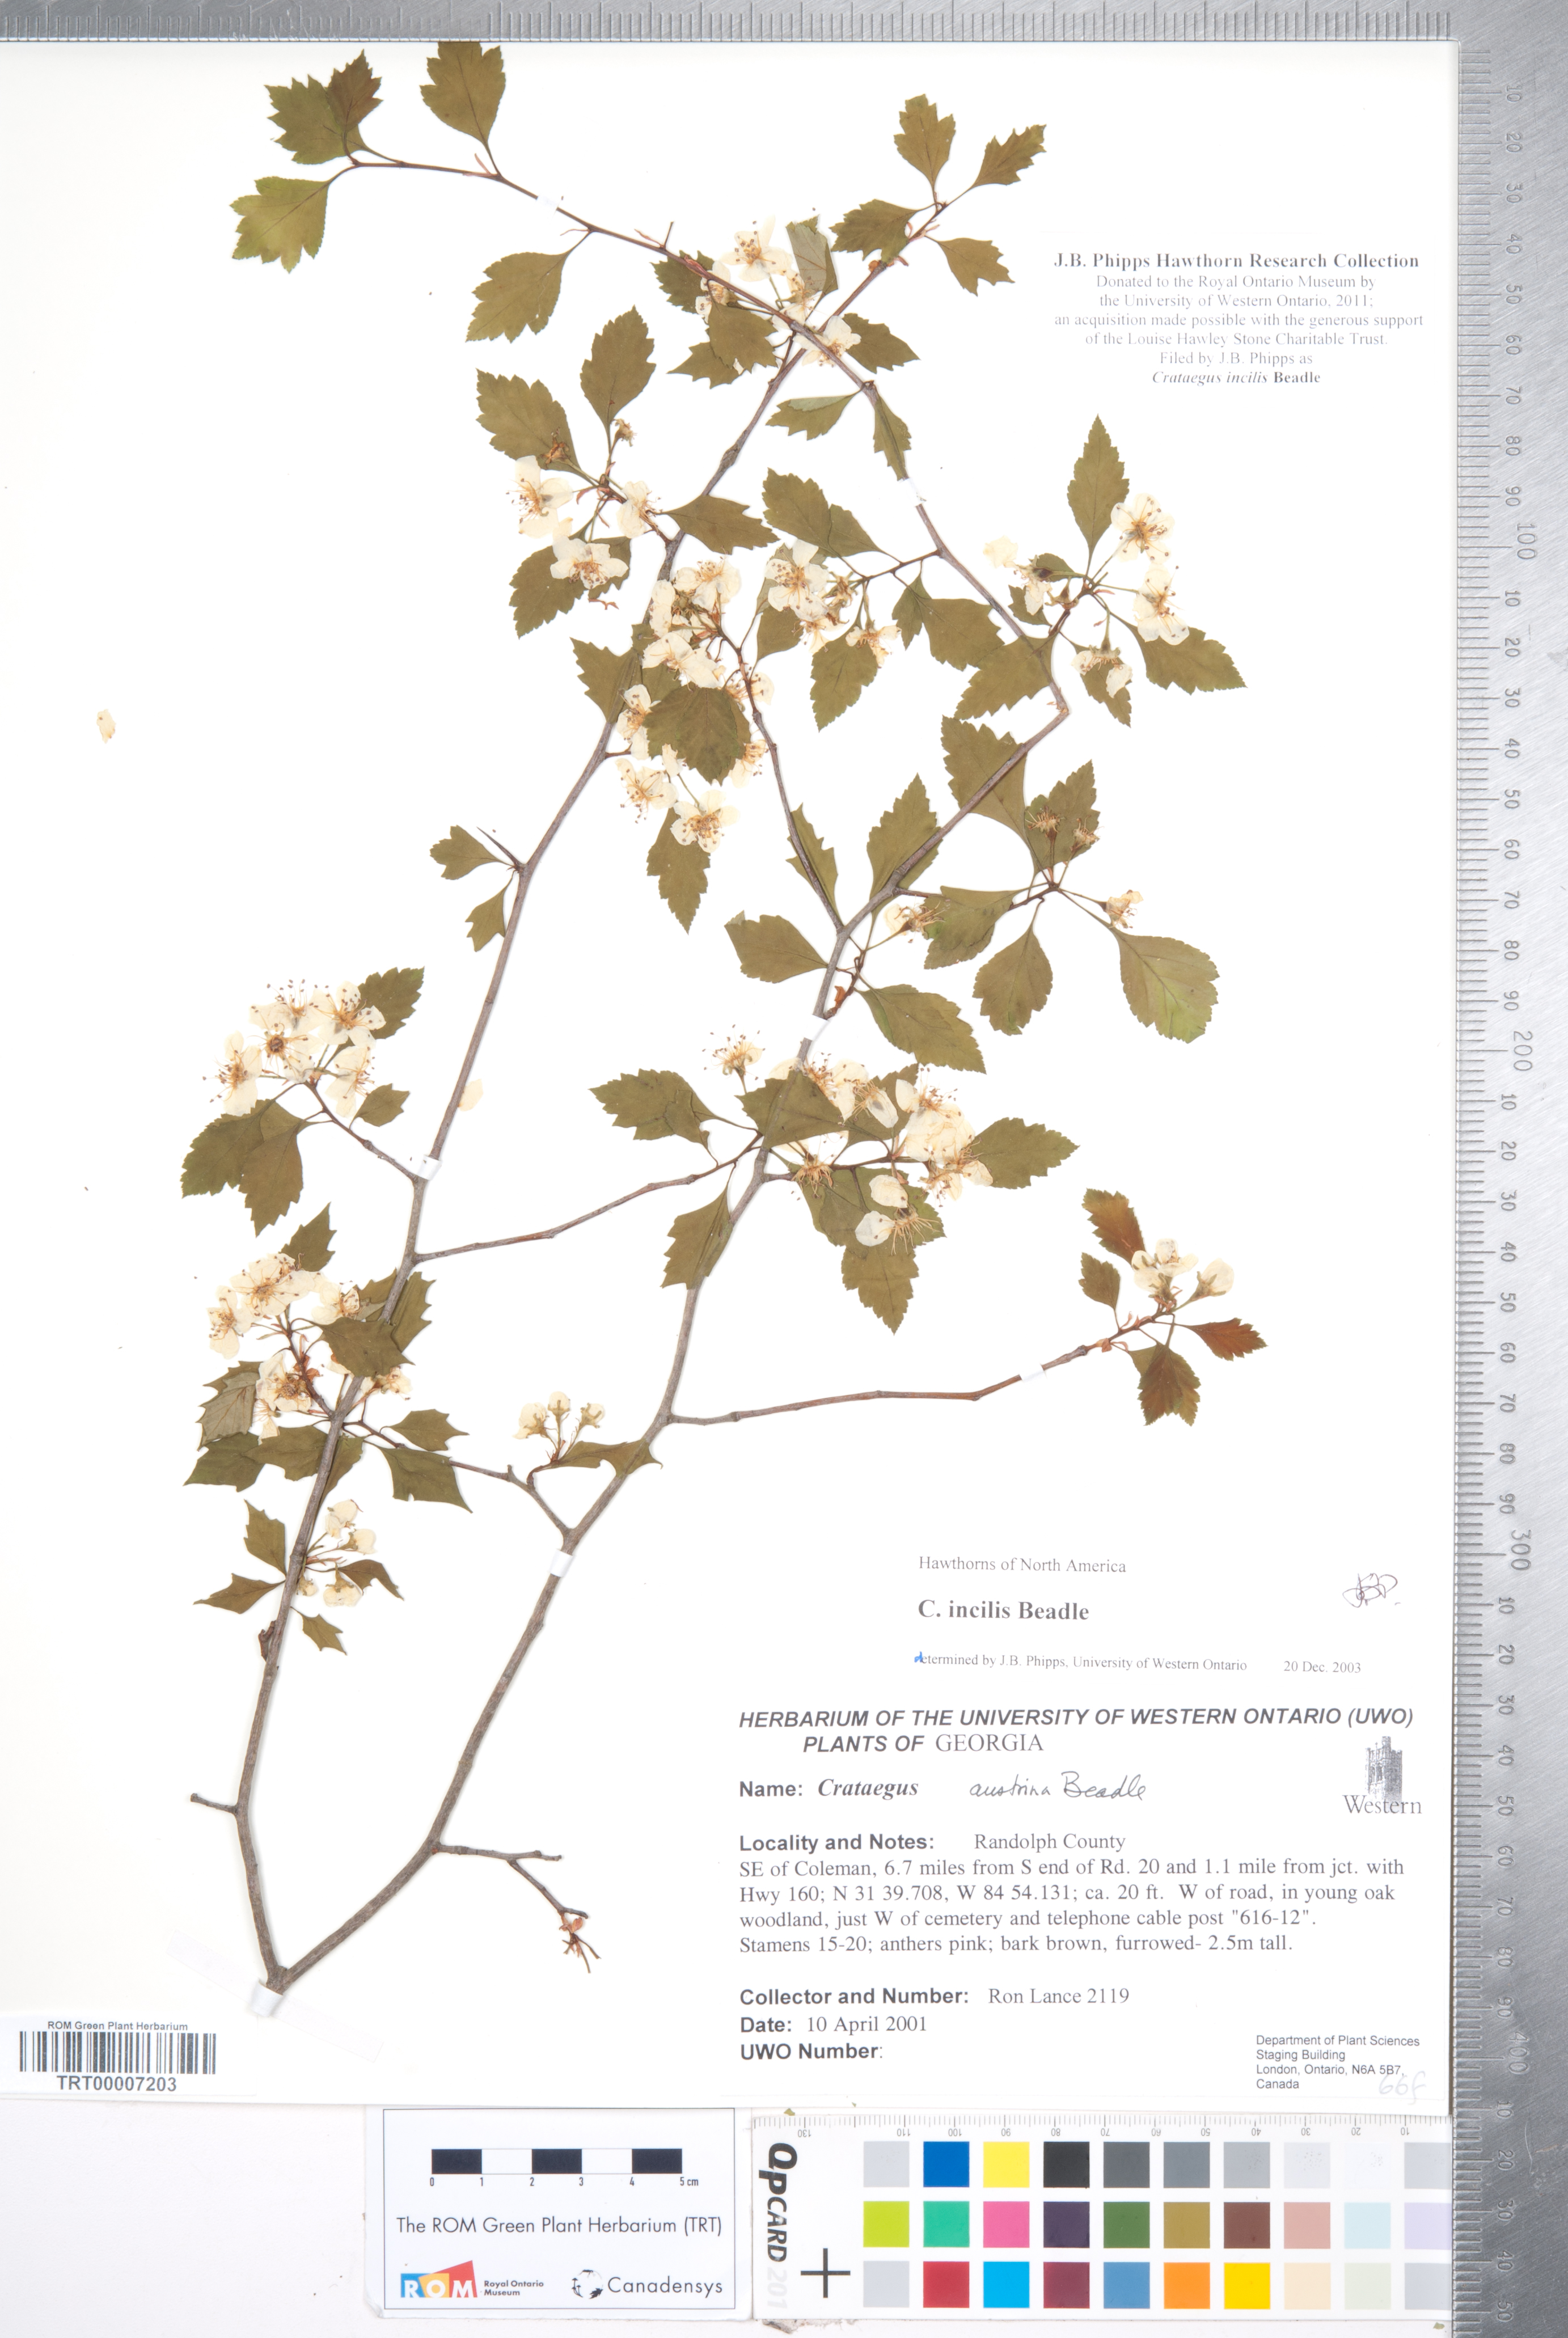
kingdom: Plantae
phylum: Tracheophyta
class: Magnoliopsida
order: Rosales
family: Rosaceae
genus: Crataegus
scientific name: Crataegus pulcherrima
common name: Beautiful hawthorn
